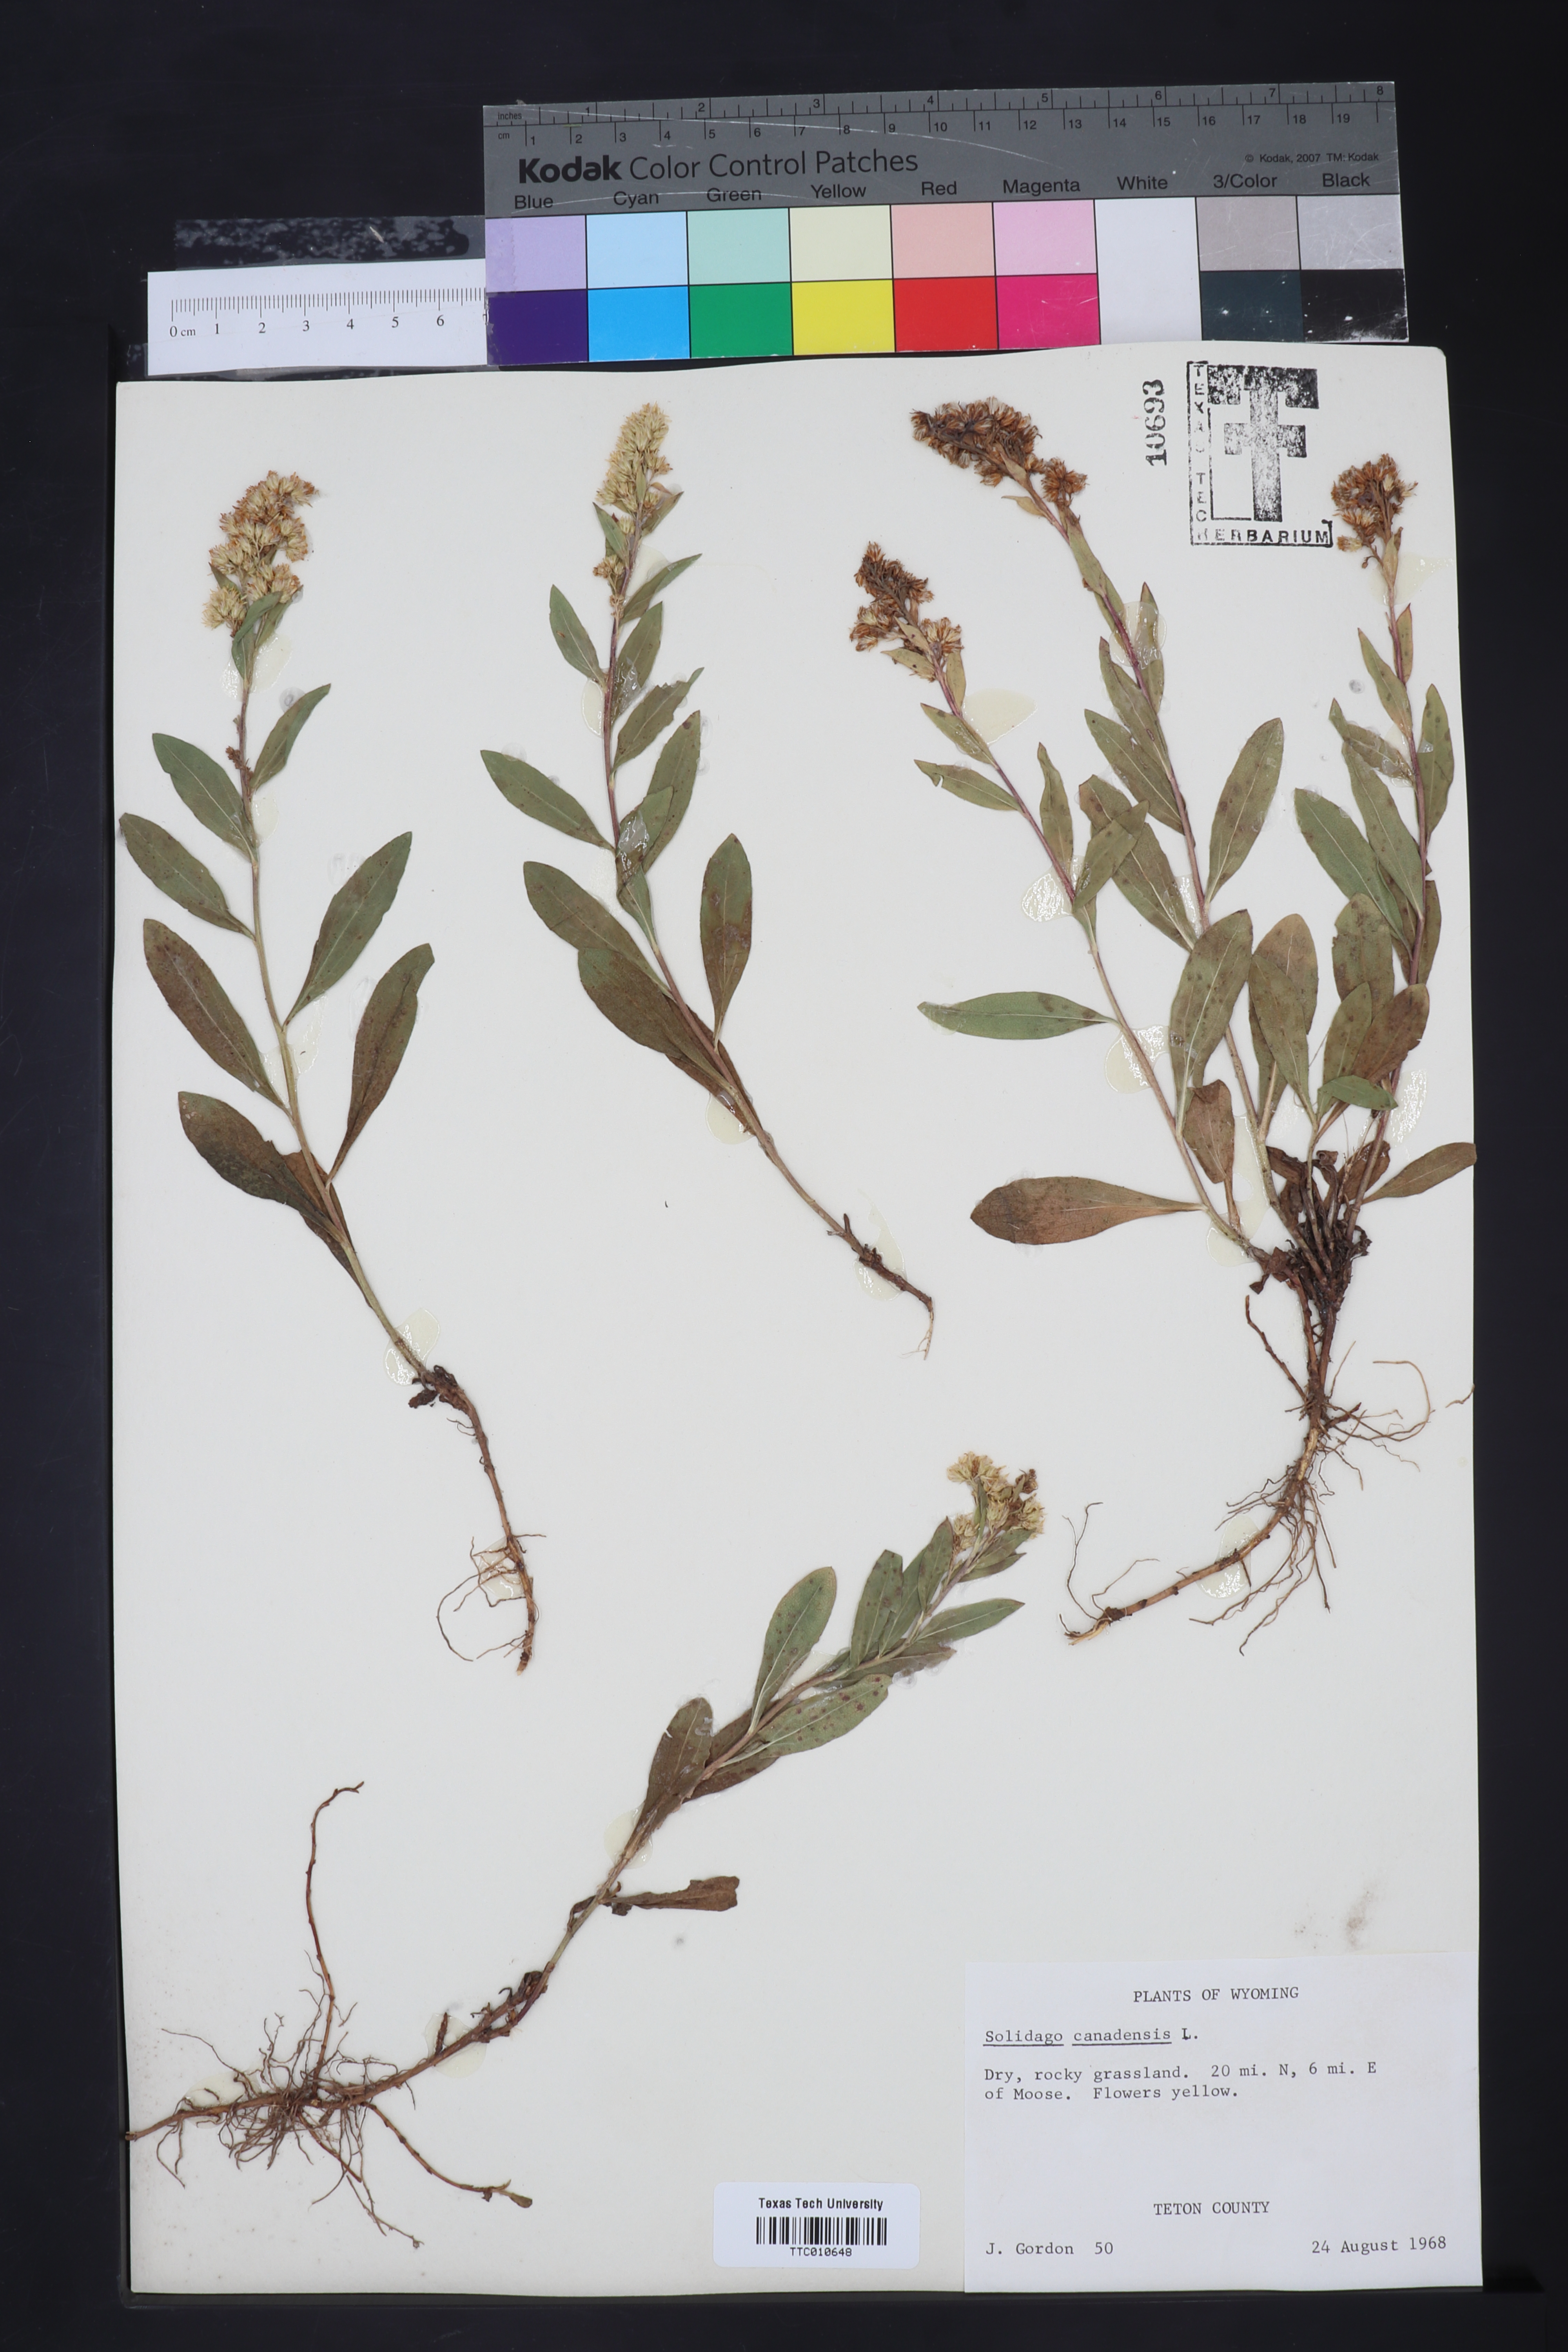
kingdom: Plantae
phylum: Tracheophyta
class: Magnoliopsida
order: Asterales
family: Asteraceae
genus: Solidago
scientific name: Solidago canadensis
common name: Canada goldenrod
